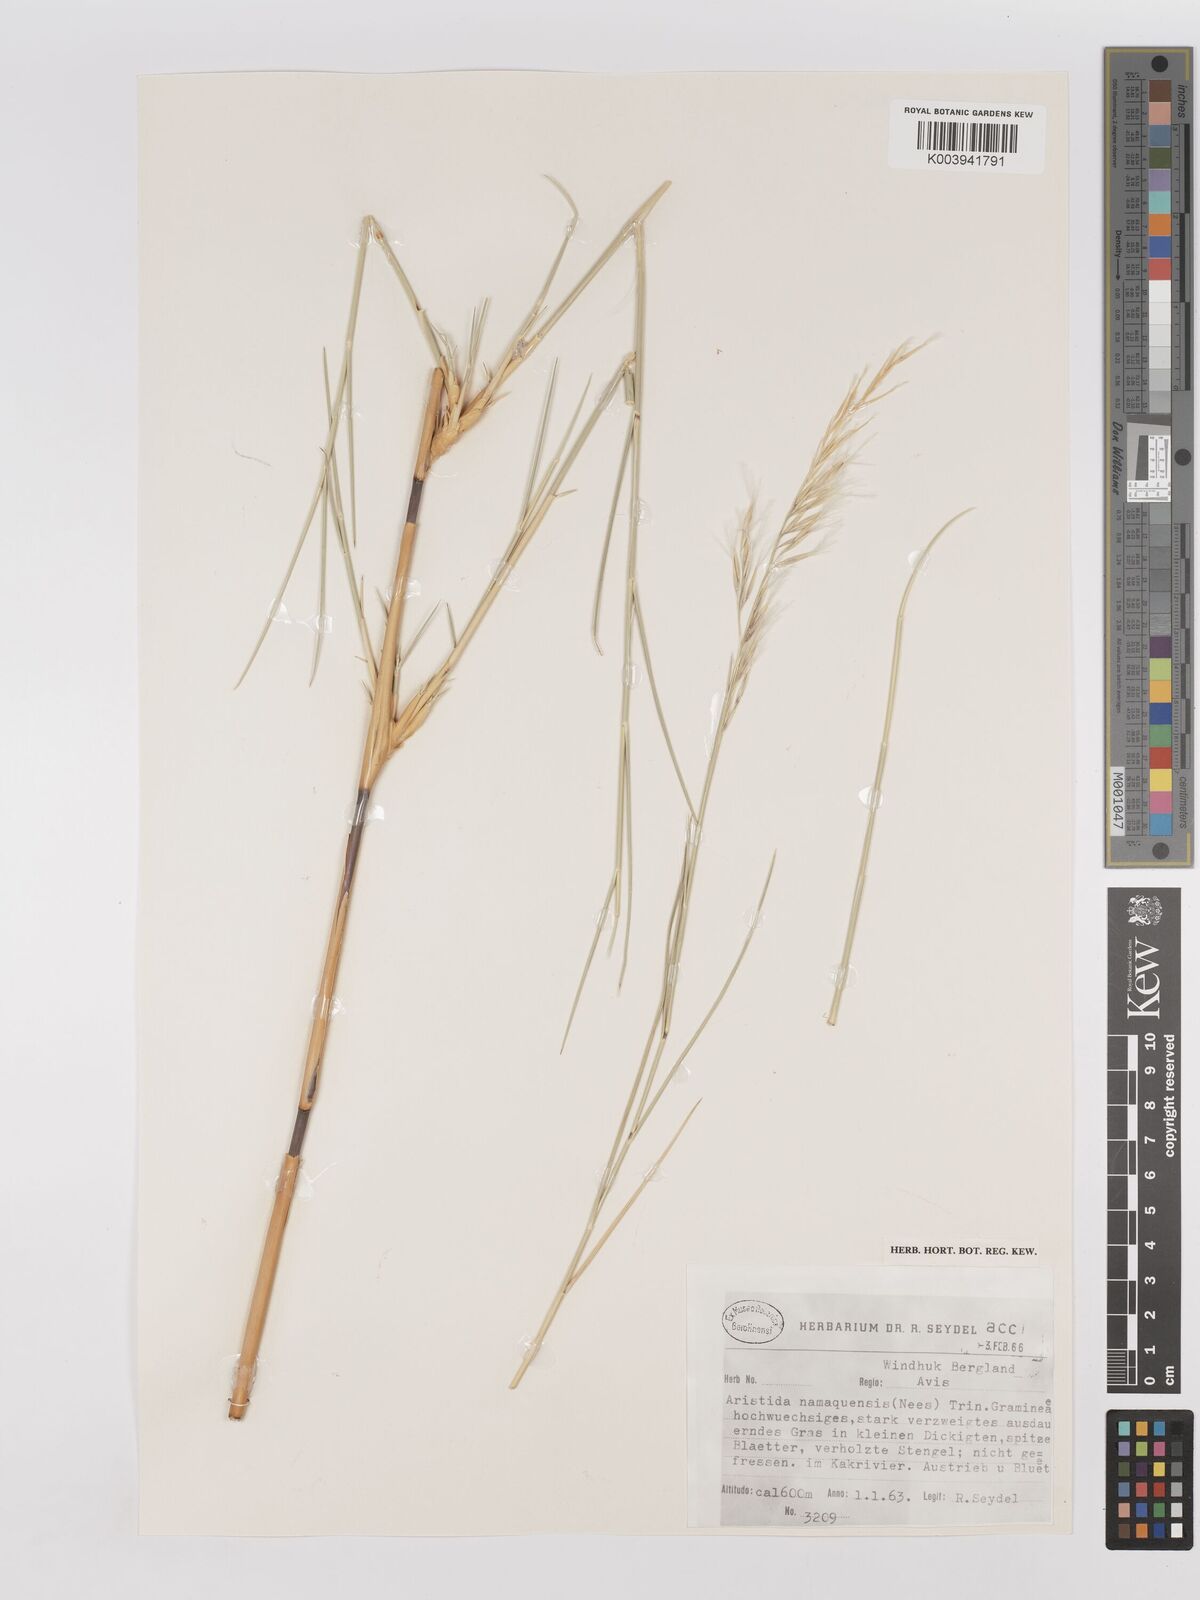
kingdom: Plantae
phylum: Tracheophyta
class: Liliopsida
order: Poales
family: Poaceae
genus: Stipagrostis
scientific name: Stipagrostis namaquensis
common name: River bushman grass
